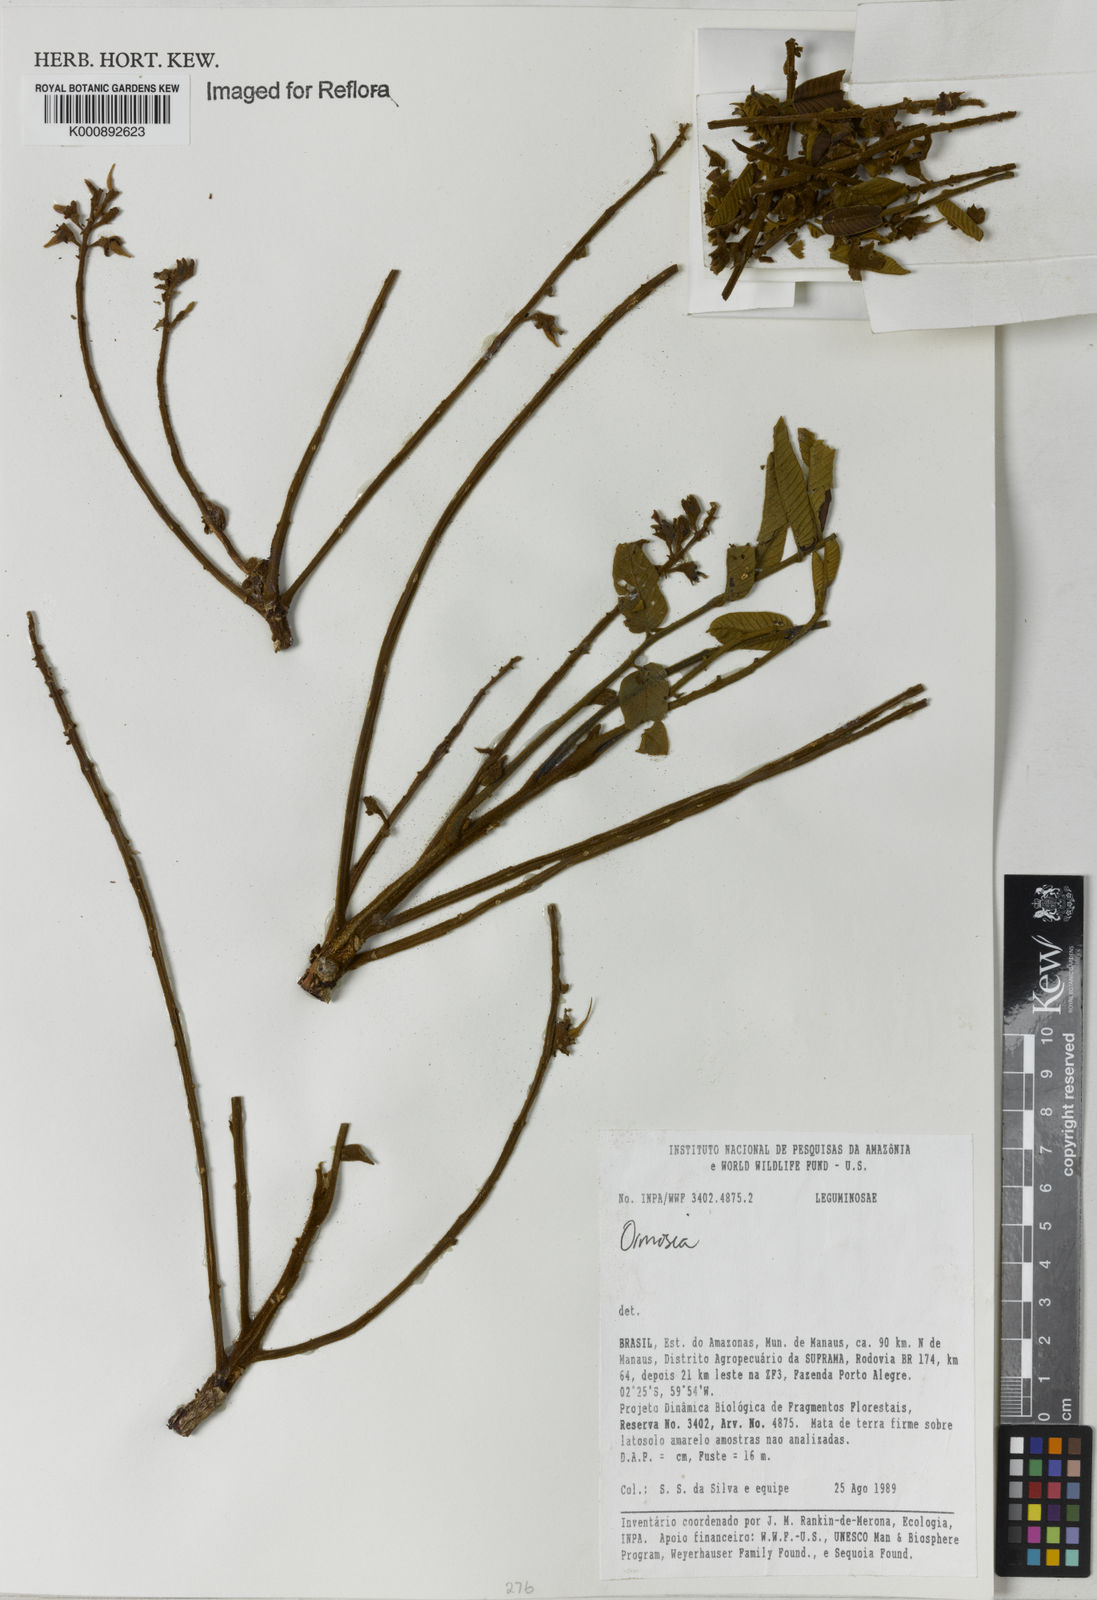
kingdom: Plantae
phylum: Tracheophyta
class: Magnoliopsida
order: Fabales
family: Fabaceae
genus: Ormosia
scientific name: Ormosia
